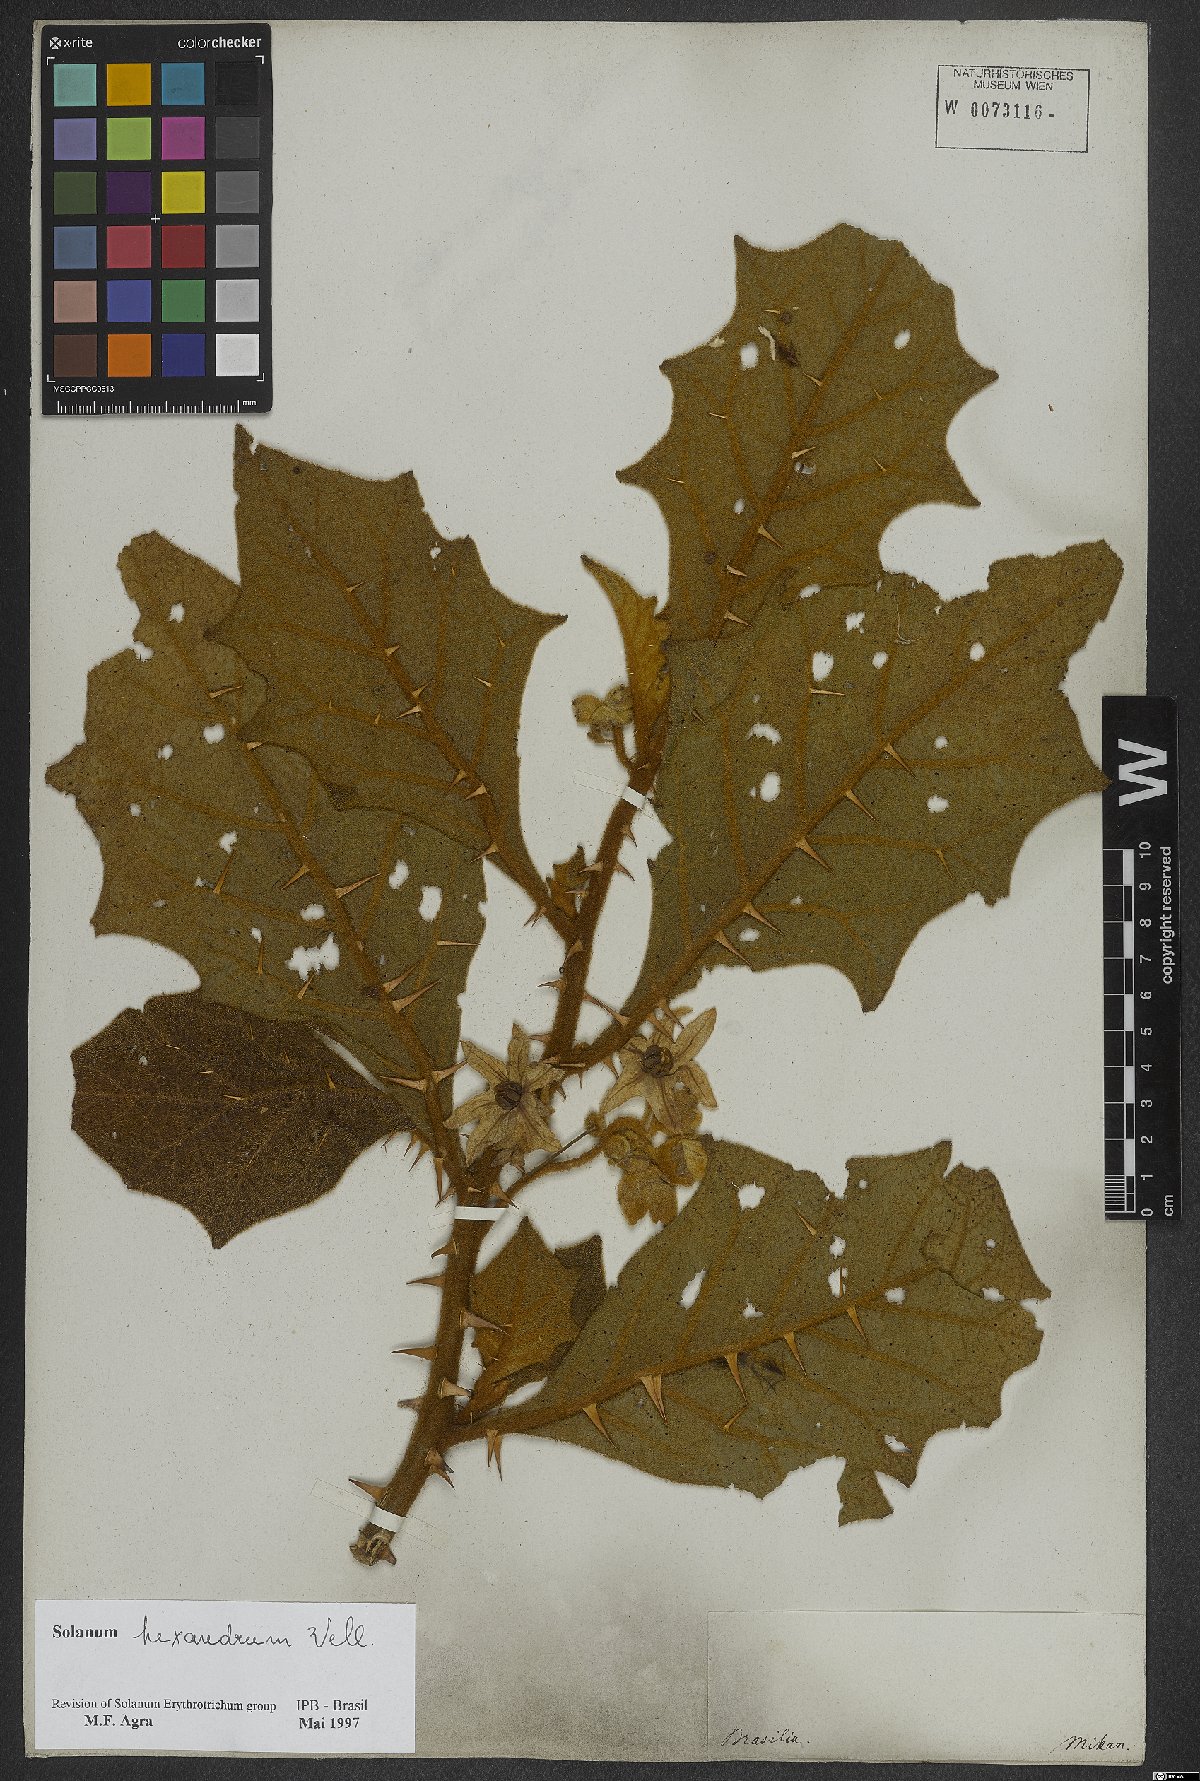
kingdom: Plantae
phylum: Tracheophyta
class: Magnoliopsida
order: Solanales
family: Solanaceae
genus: Solanum
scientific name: Solanum hexandrum
